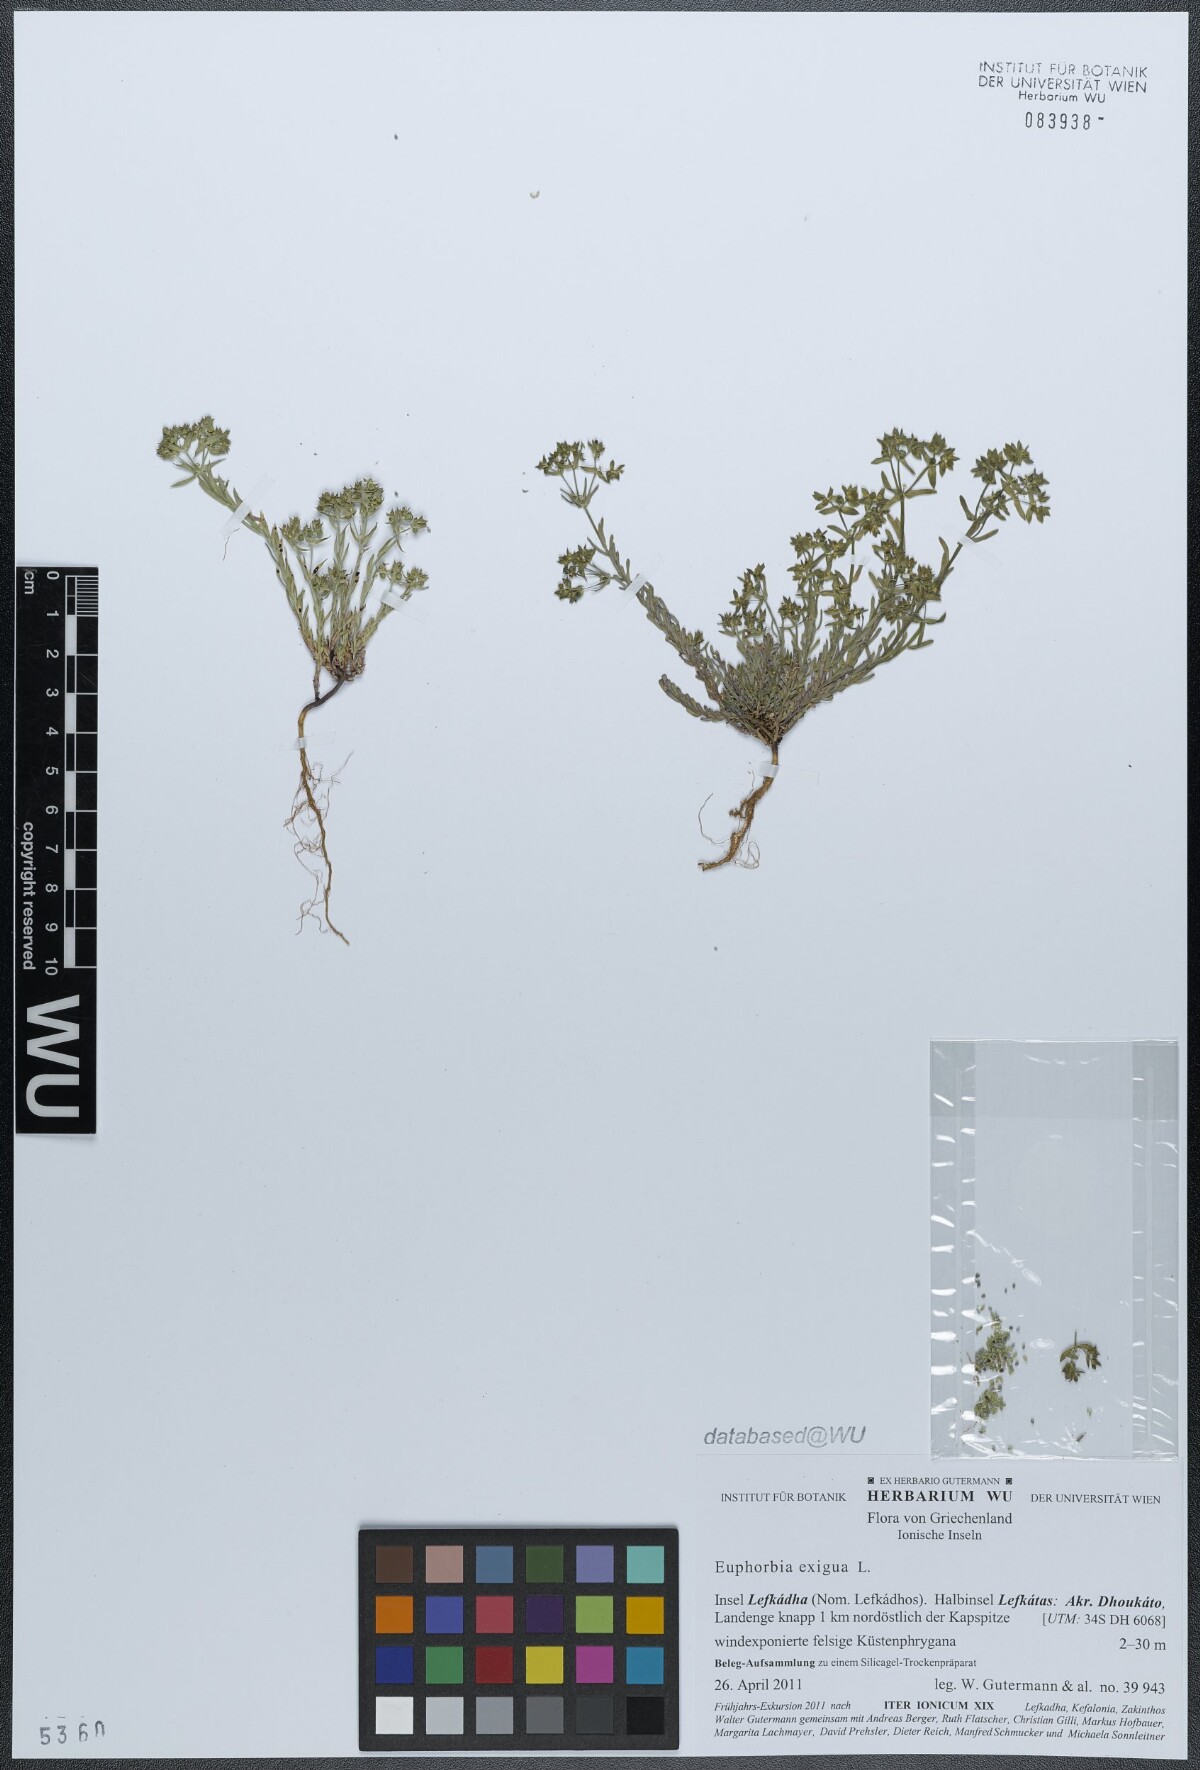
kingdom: Plantae
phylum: Tracheophyta
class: Magnoliopsida
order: Malpighiales
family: Euphorbiaceae
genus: Euphorbia
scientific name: Euphorbia exigua
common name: Dwarf spurge
